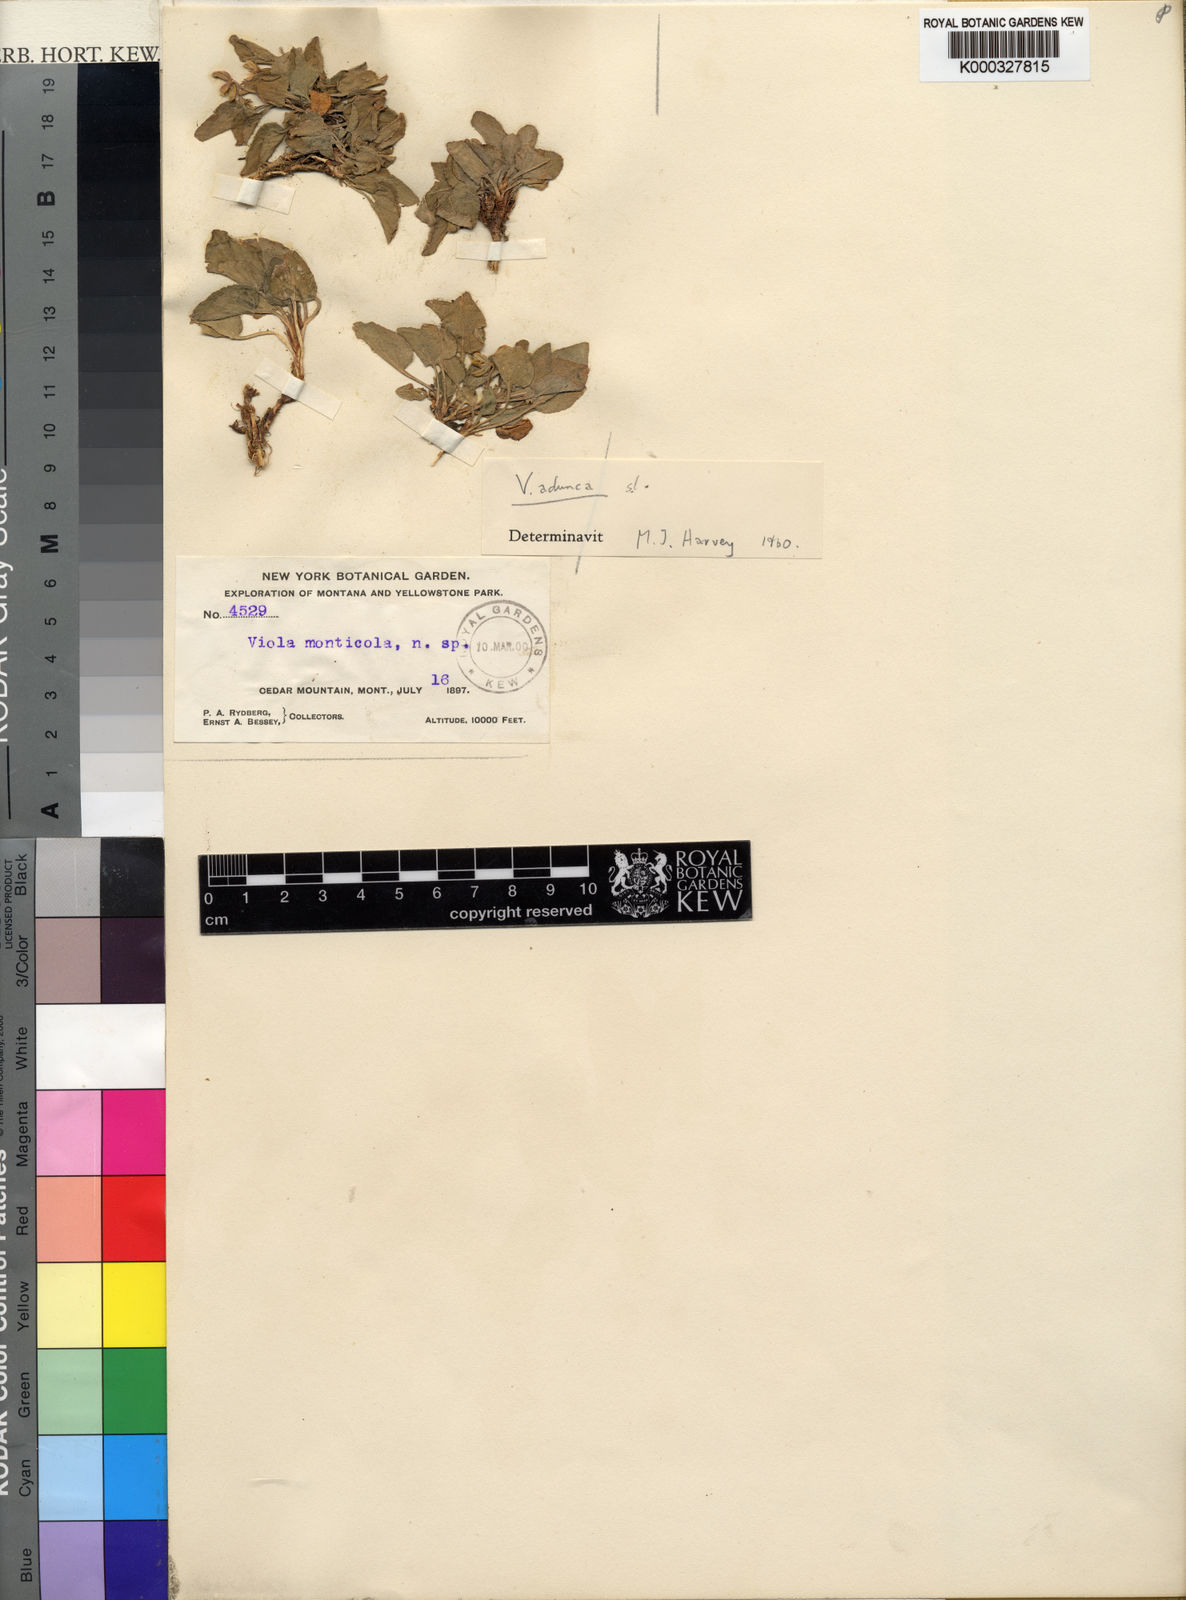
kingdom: Plantae
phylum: Tracheophyta
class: Magnoliopsida
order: Malpighiales
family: Violaceae
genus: Viola
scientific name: Viola adunca
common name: Sand violet
